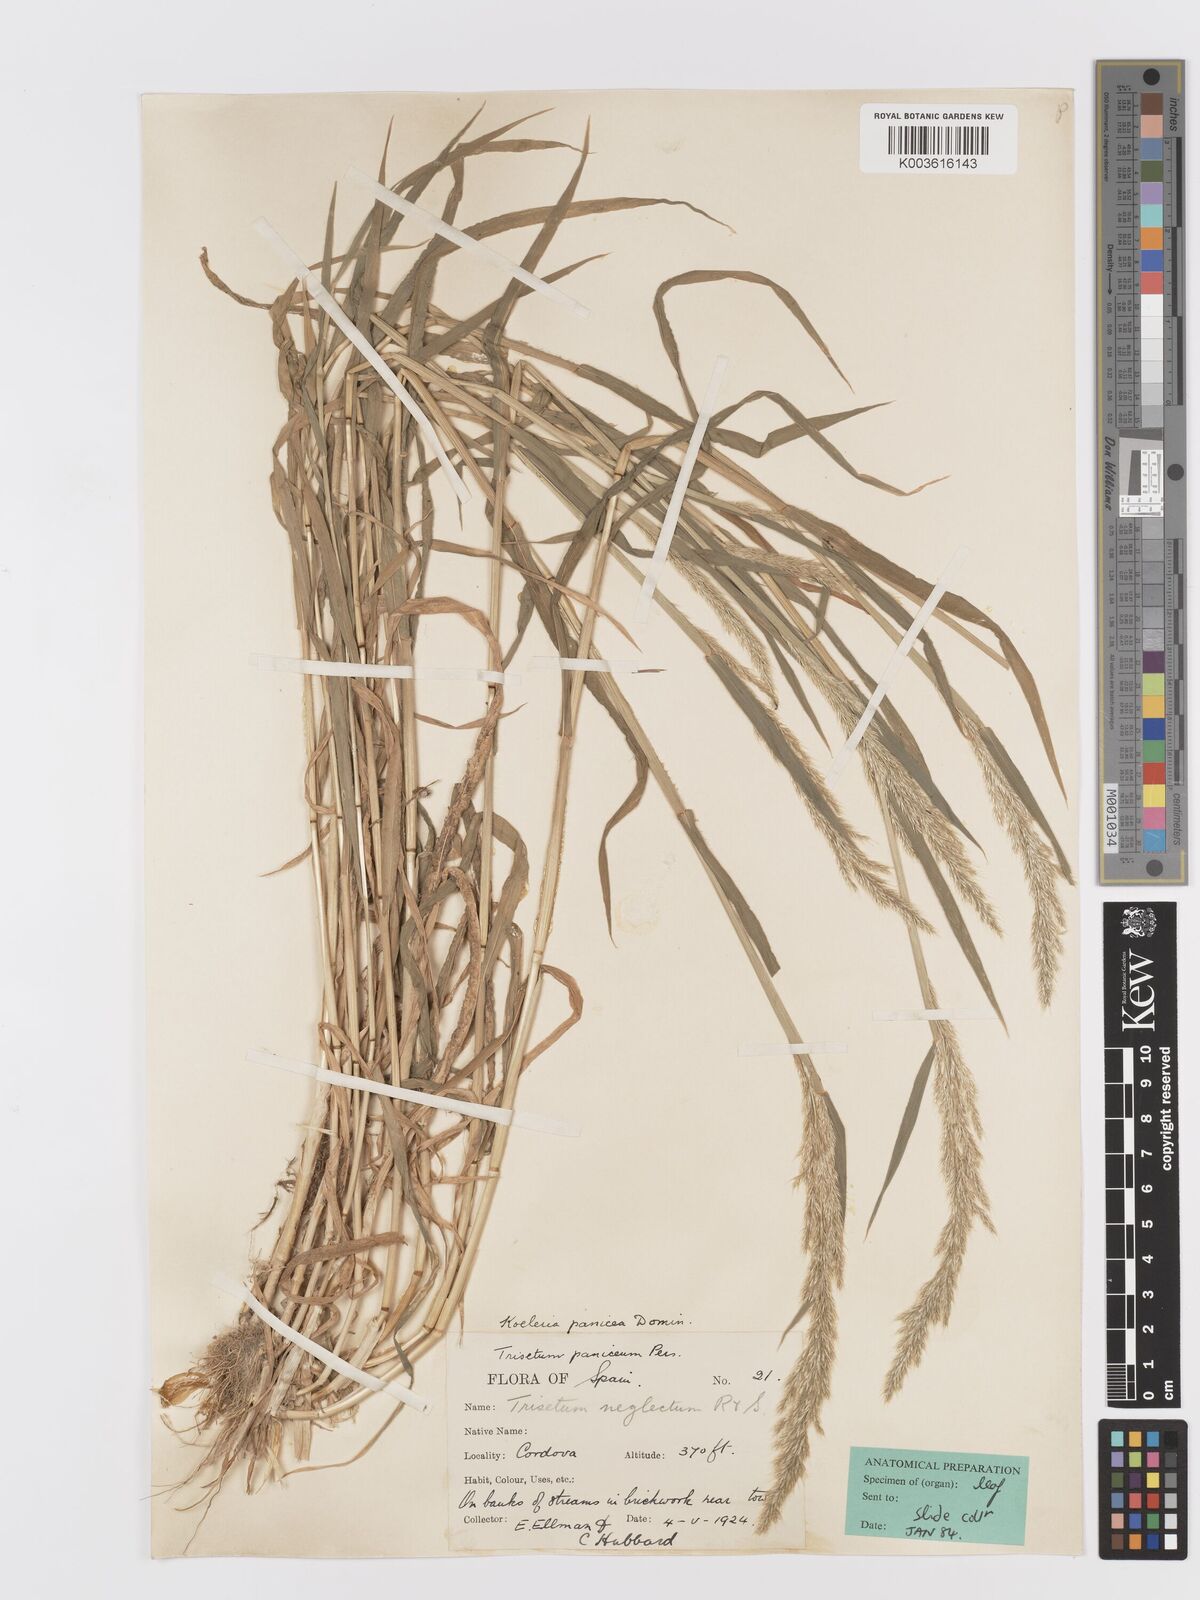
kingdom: Plantae
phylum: Tracheophyta
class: Liliopsida
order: Poales
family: Poaceae
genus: Trisetaria
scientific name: Trisetaria panicea
